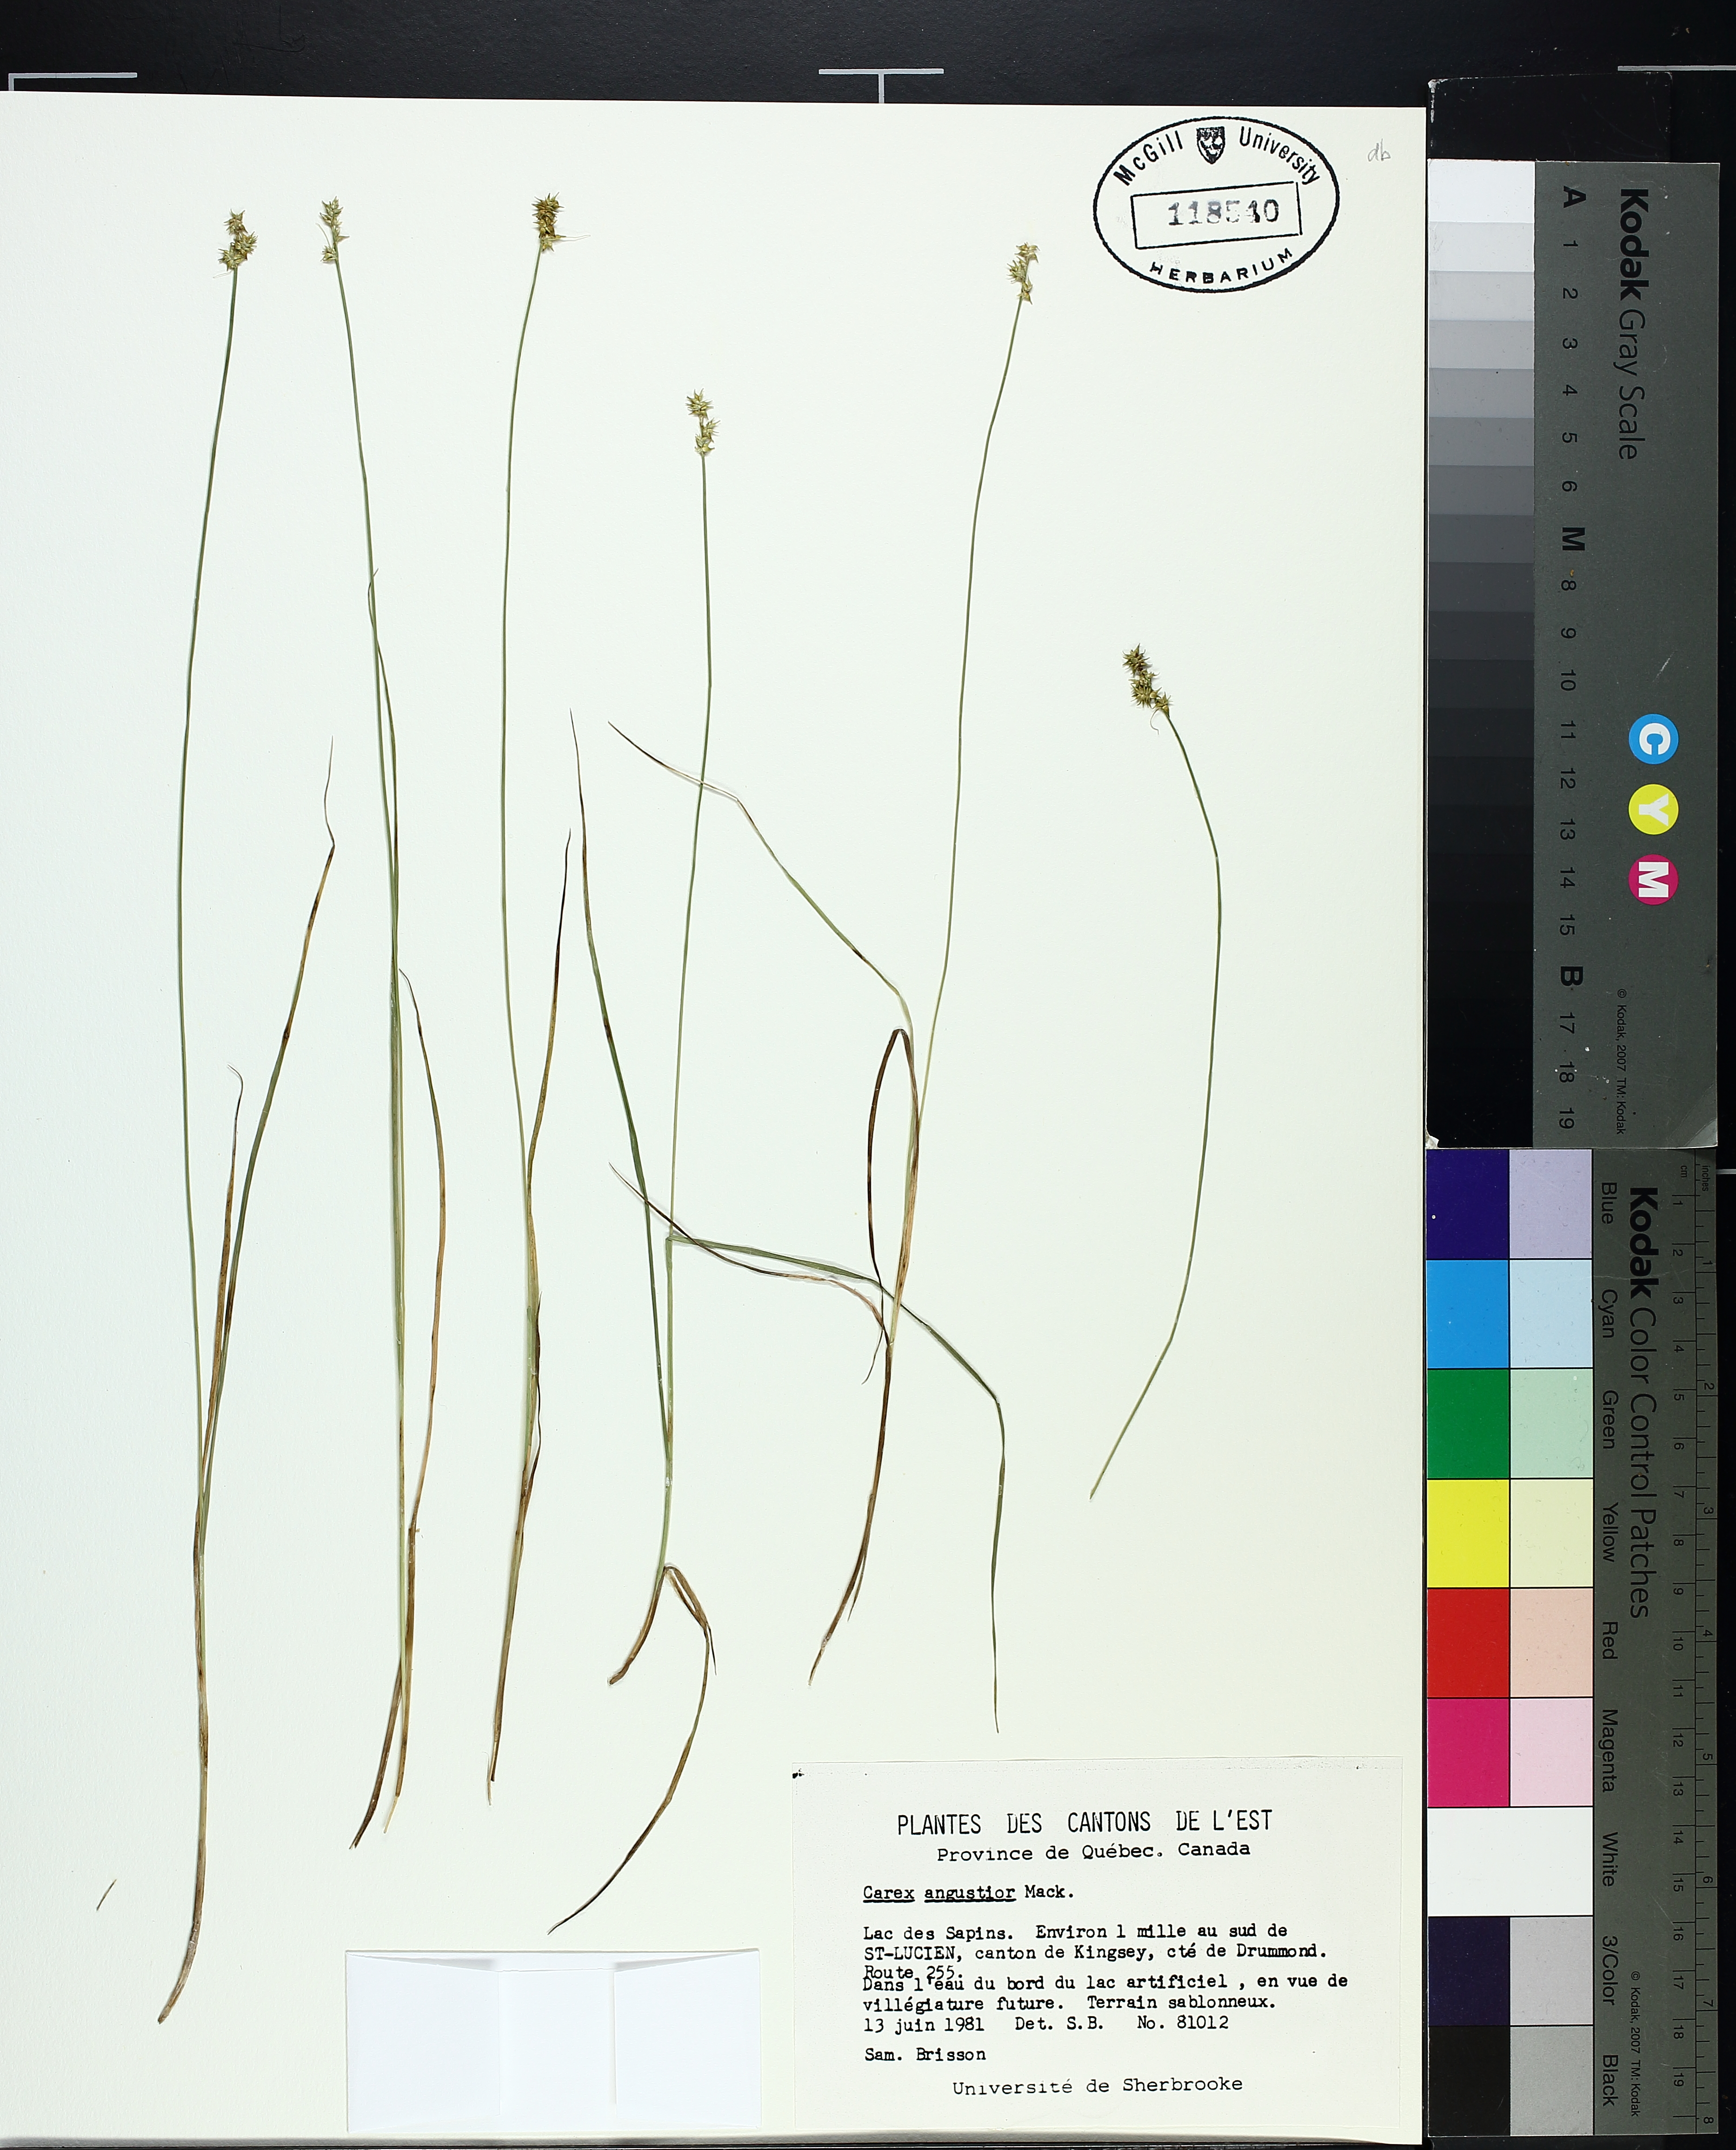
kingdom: Plantae
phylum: Tracheophyta
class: Liliopsida
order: Poales
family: Cyperaceae
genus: Carex
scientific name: Carex echinata
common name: Star sedge
